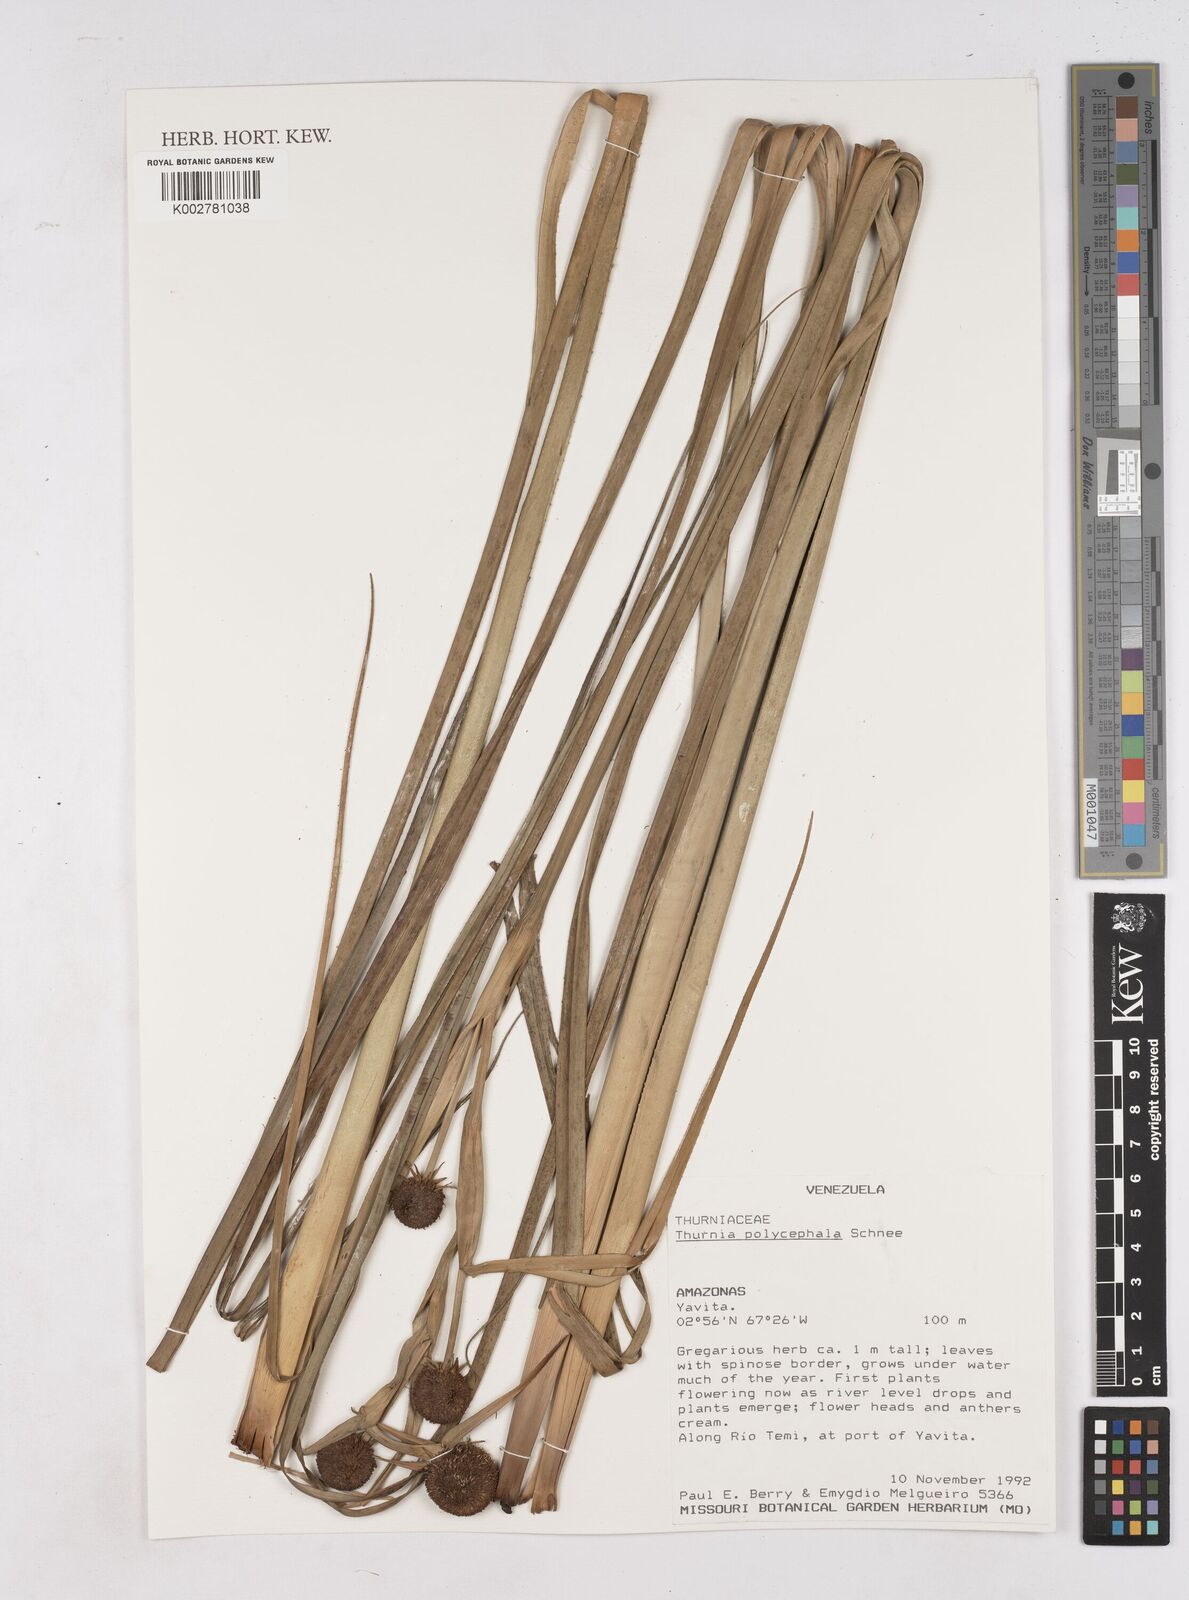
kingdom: Plantae
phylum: Tracheophyta
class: Liliopsida
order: Poales
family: Thurniaceae
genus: Thurnia
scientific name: Thurnia polycephala
